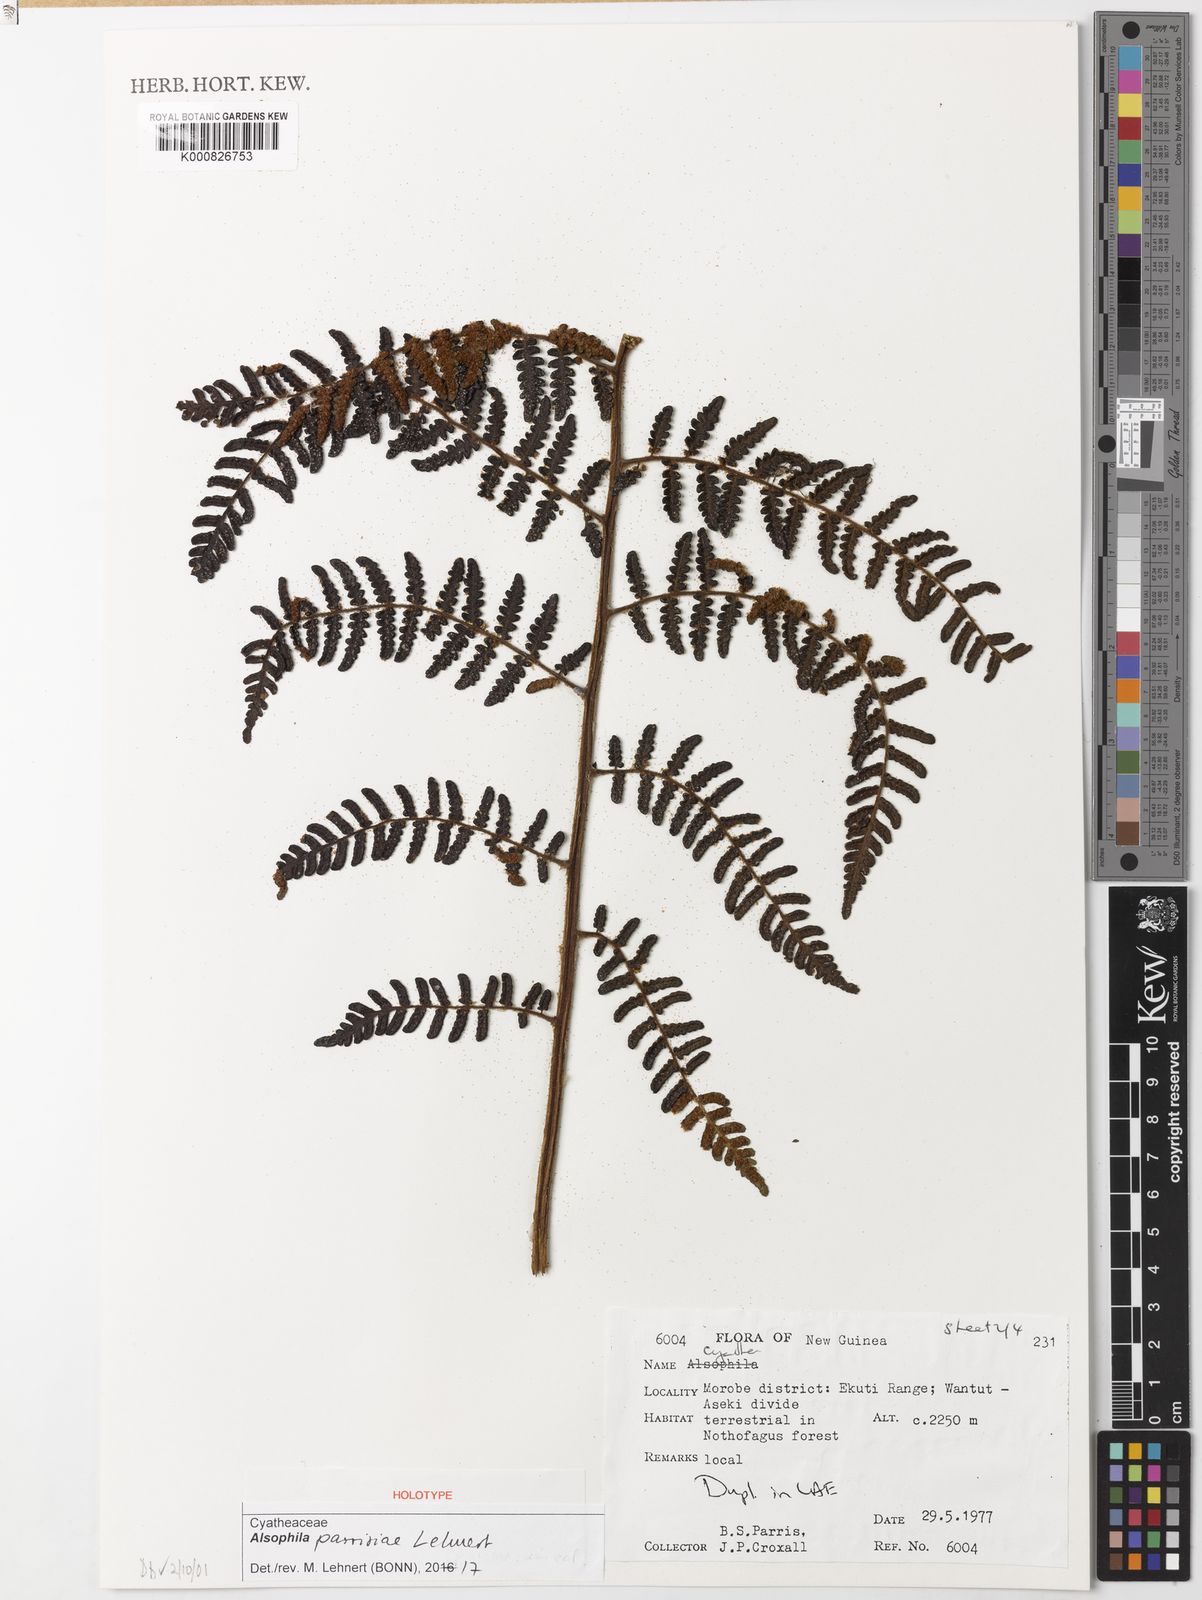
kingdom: Plantae
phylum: Tracheophyta
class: Polypodiopsida
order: Cyatheales
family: Cyatheaceae
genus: Alsophila
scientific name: Alsophila parrisiae
